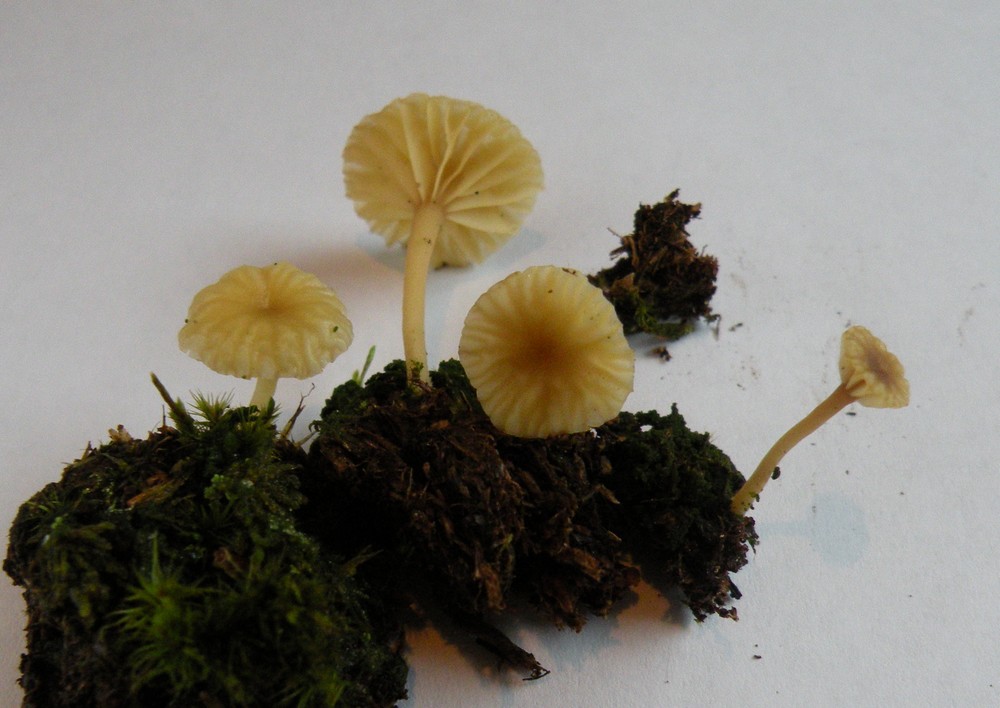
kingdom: Fungi
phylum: Basidiomycota
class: Agaricomycetes
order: Agaricales
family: Hygrophoraceae
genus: Lichenomphalia
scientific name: Lichenomphalia umbellifera
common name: tørve-lavhat
